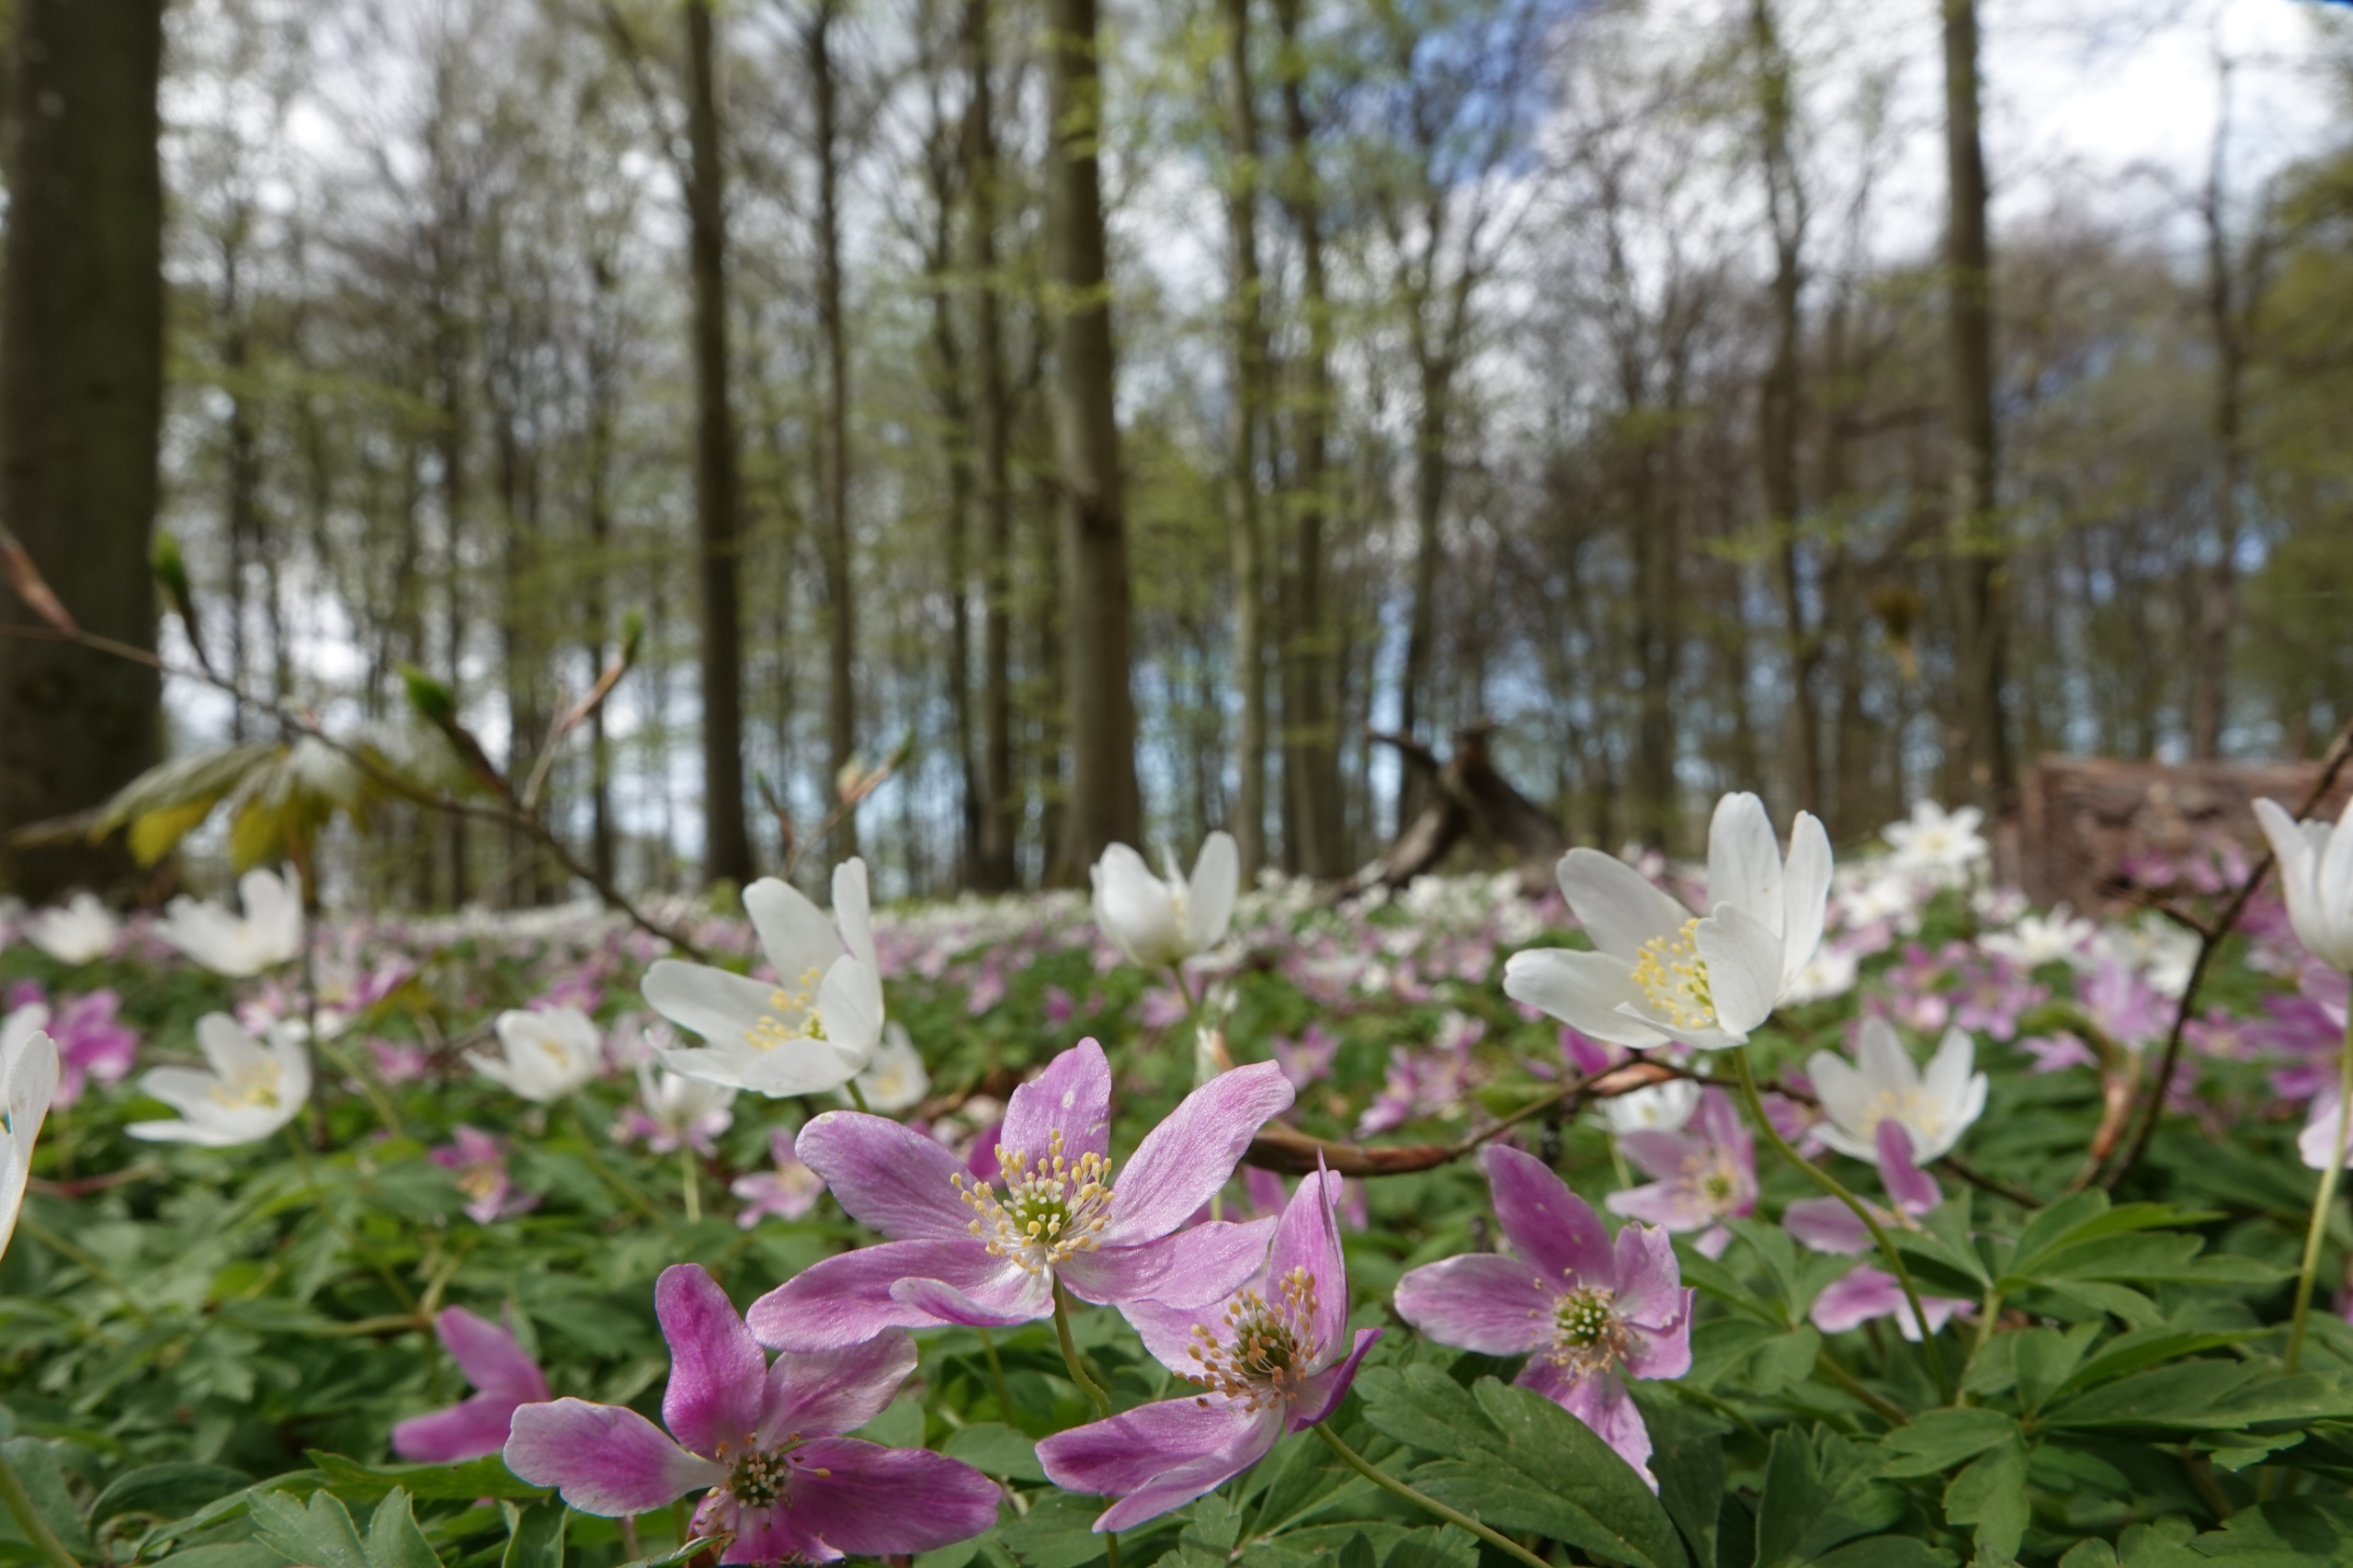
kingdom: Plantae
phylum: Tracheophyta
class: Magnoliopsida
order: Ranunculales
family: Ranunculaceae
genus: Anemone
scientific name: Anemone nemorosa
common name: Hvid anemone
